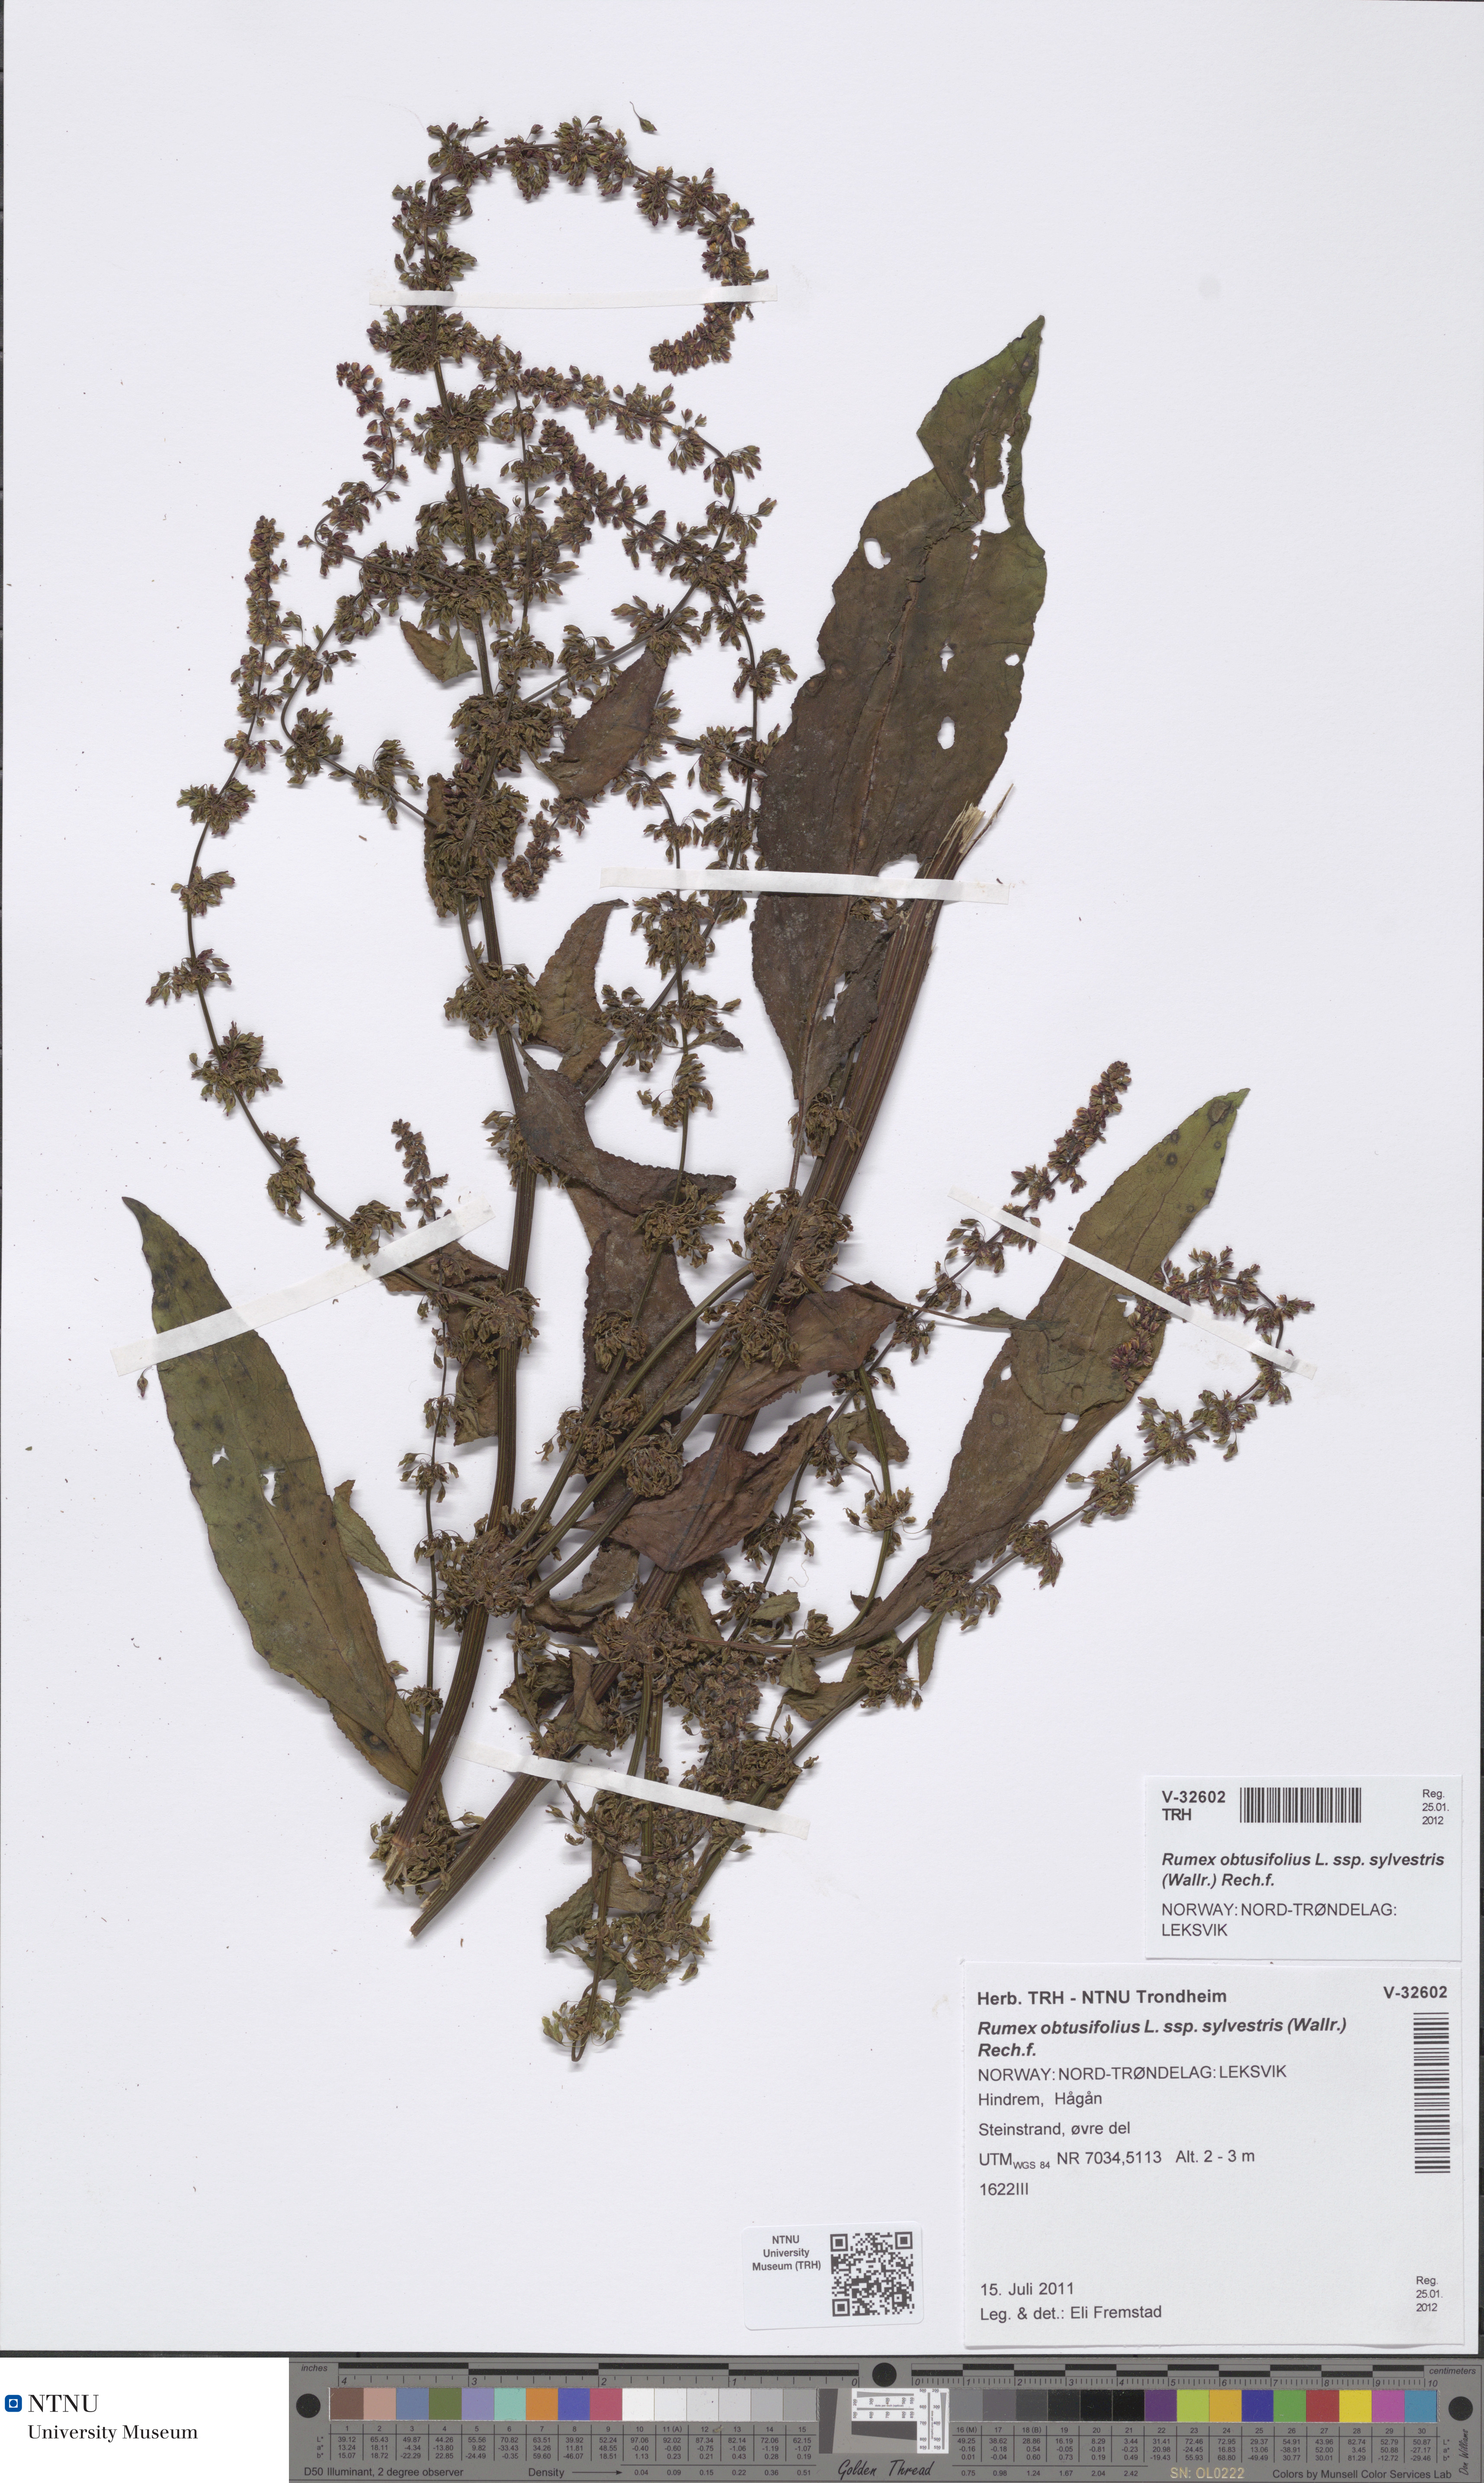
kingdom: Plantae
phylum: Tracheophyta
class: Magnoliopsida
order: Caryophyllales
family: Polygonaceae
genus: Rumex
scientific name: Rumex obtusifolius
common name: Bitter dock
